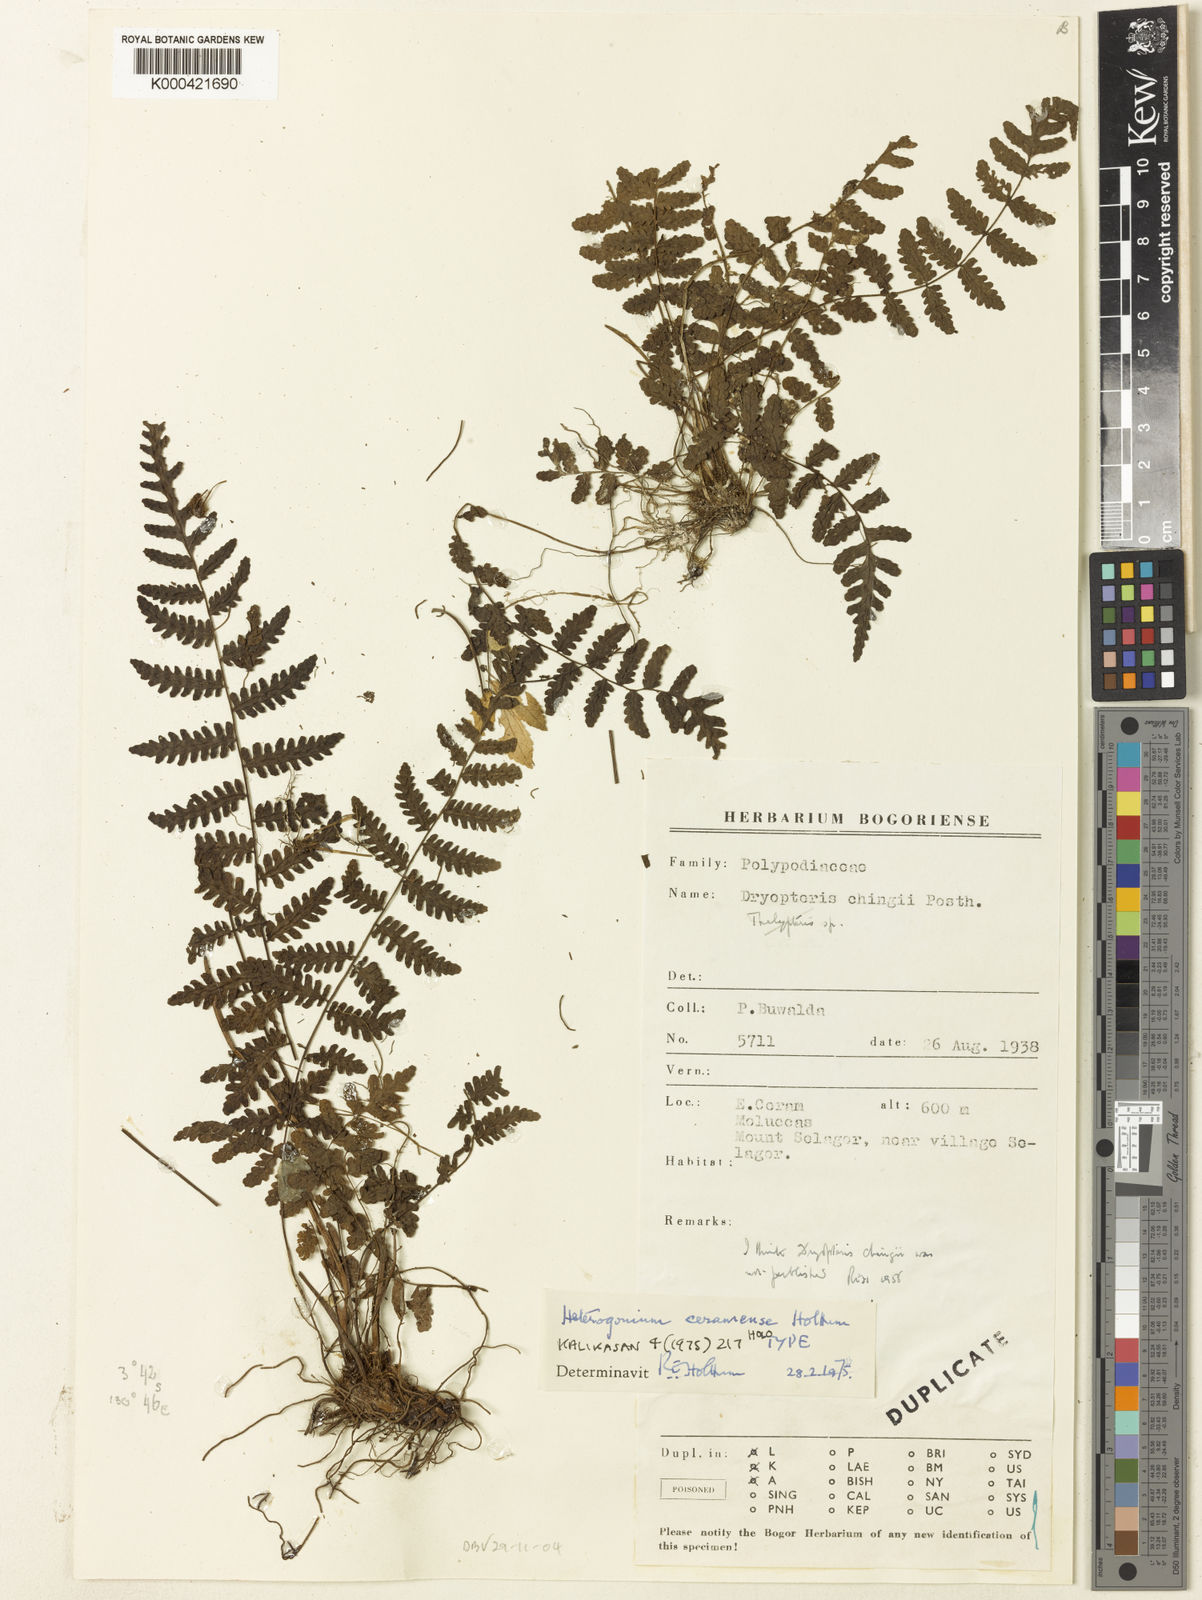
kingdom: Plantae
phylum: Tracheophyta
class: Polypodiopsida
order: Polypodiales
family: Tectariaceae
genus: Tectaria
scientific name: Tectaria ceramensis
